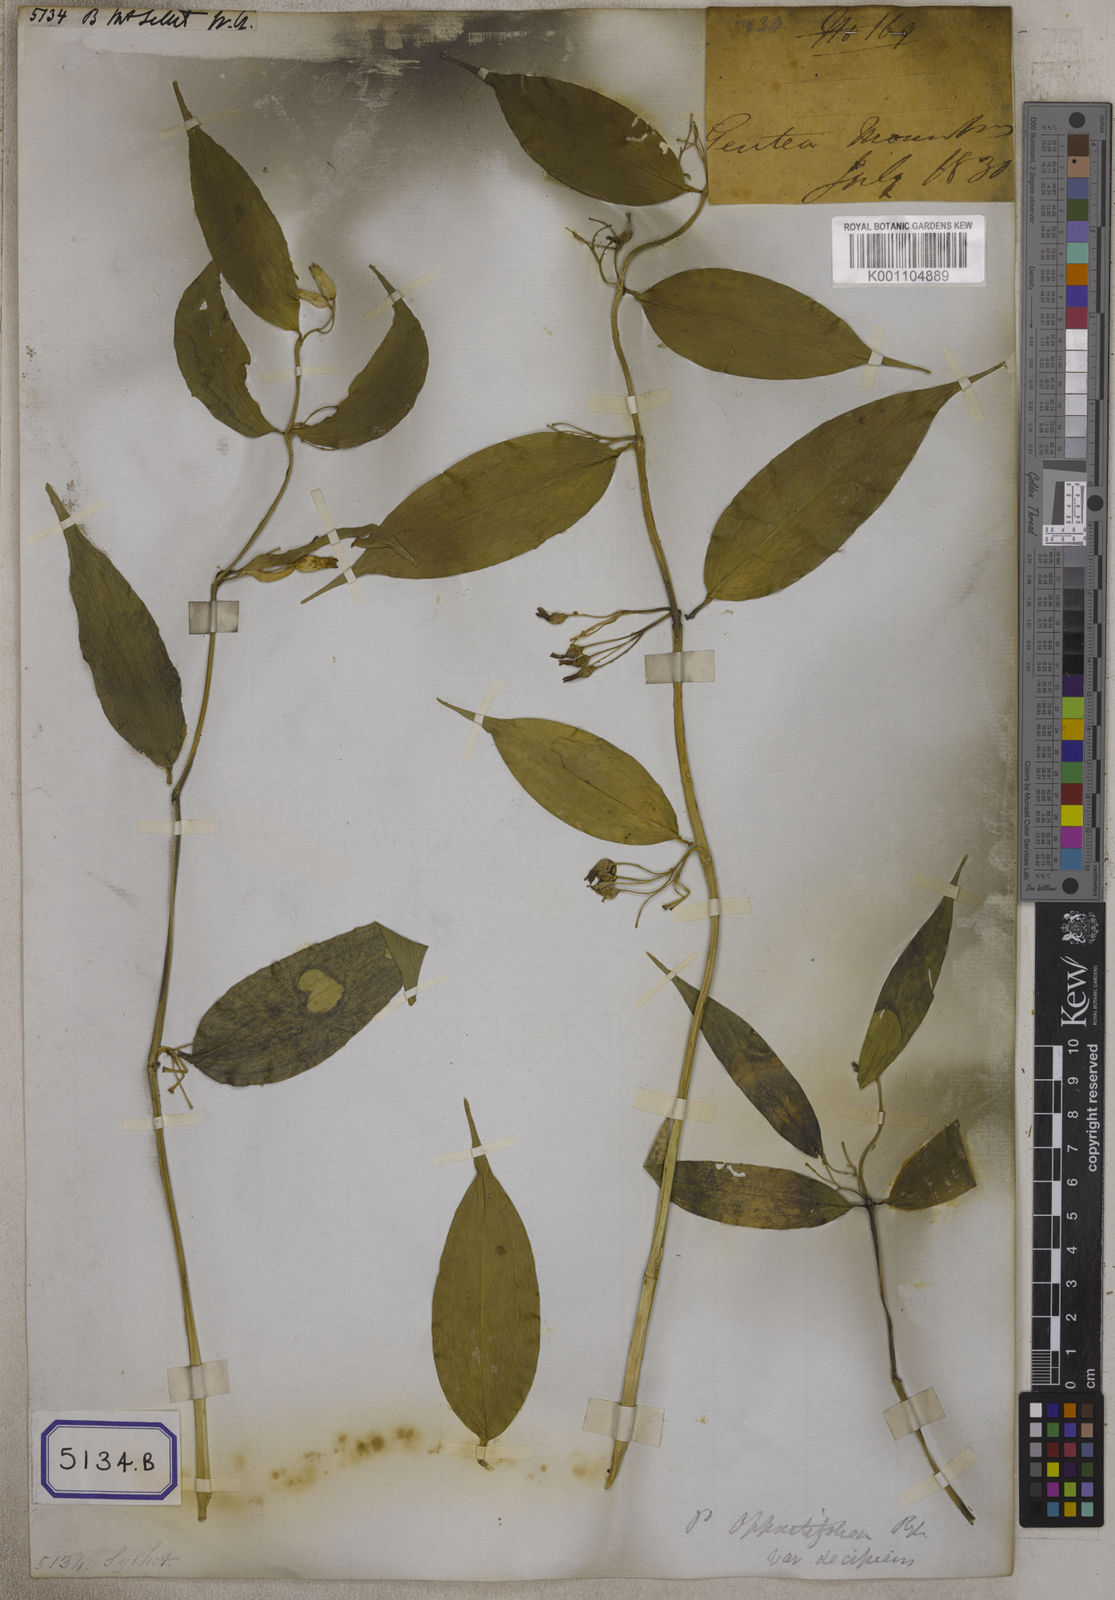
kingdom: Plantae
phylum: Tracheophyta
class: Liliopsida
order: Asparagales
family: Asparagaceae
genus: Polygonatum
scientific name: Polygonatum oppositifolium
